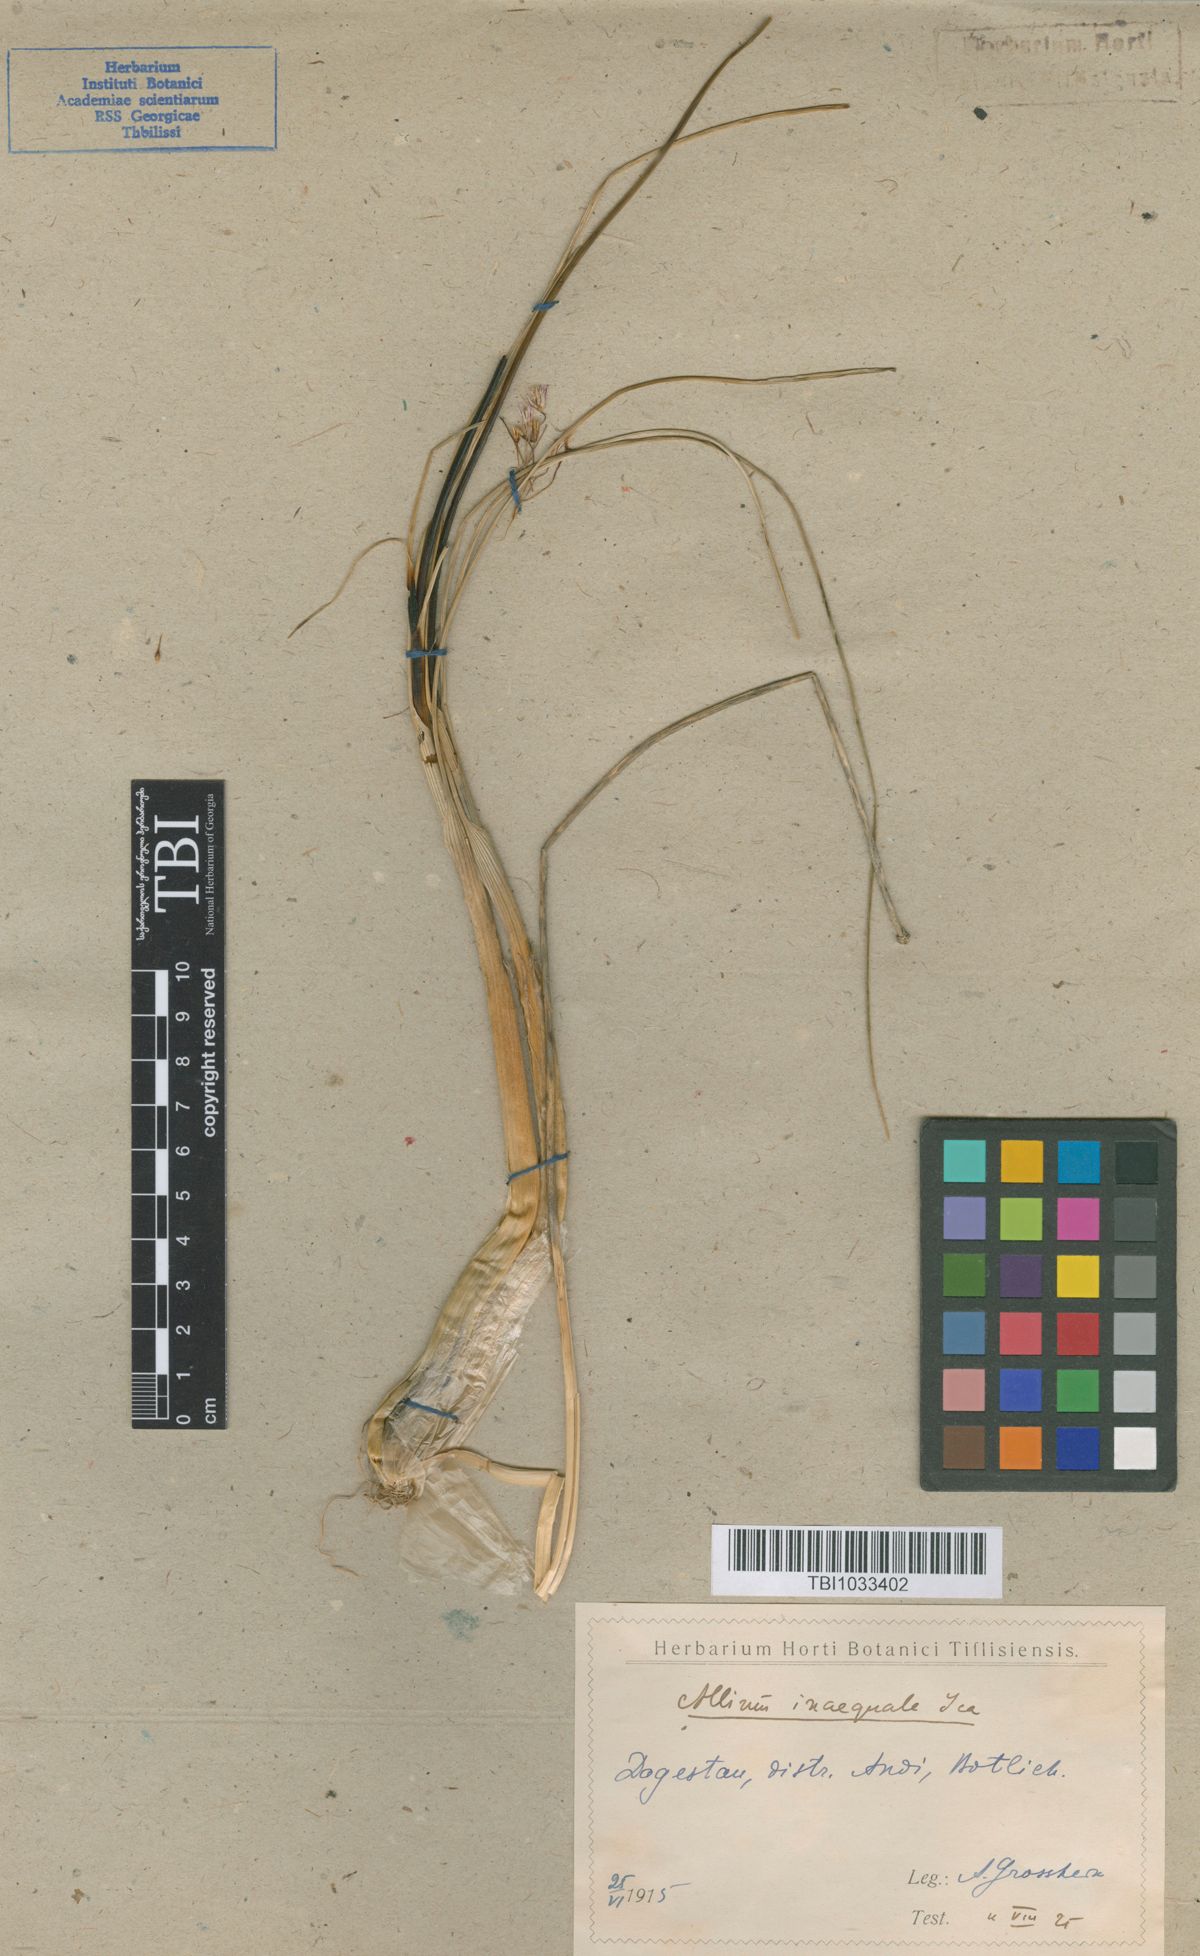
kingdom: Plantae
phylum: Tracheophyta
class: Liliopsida
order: Asparagales
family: Amaryllidaceae
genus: Allium
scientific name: Allium inaequale
